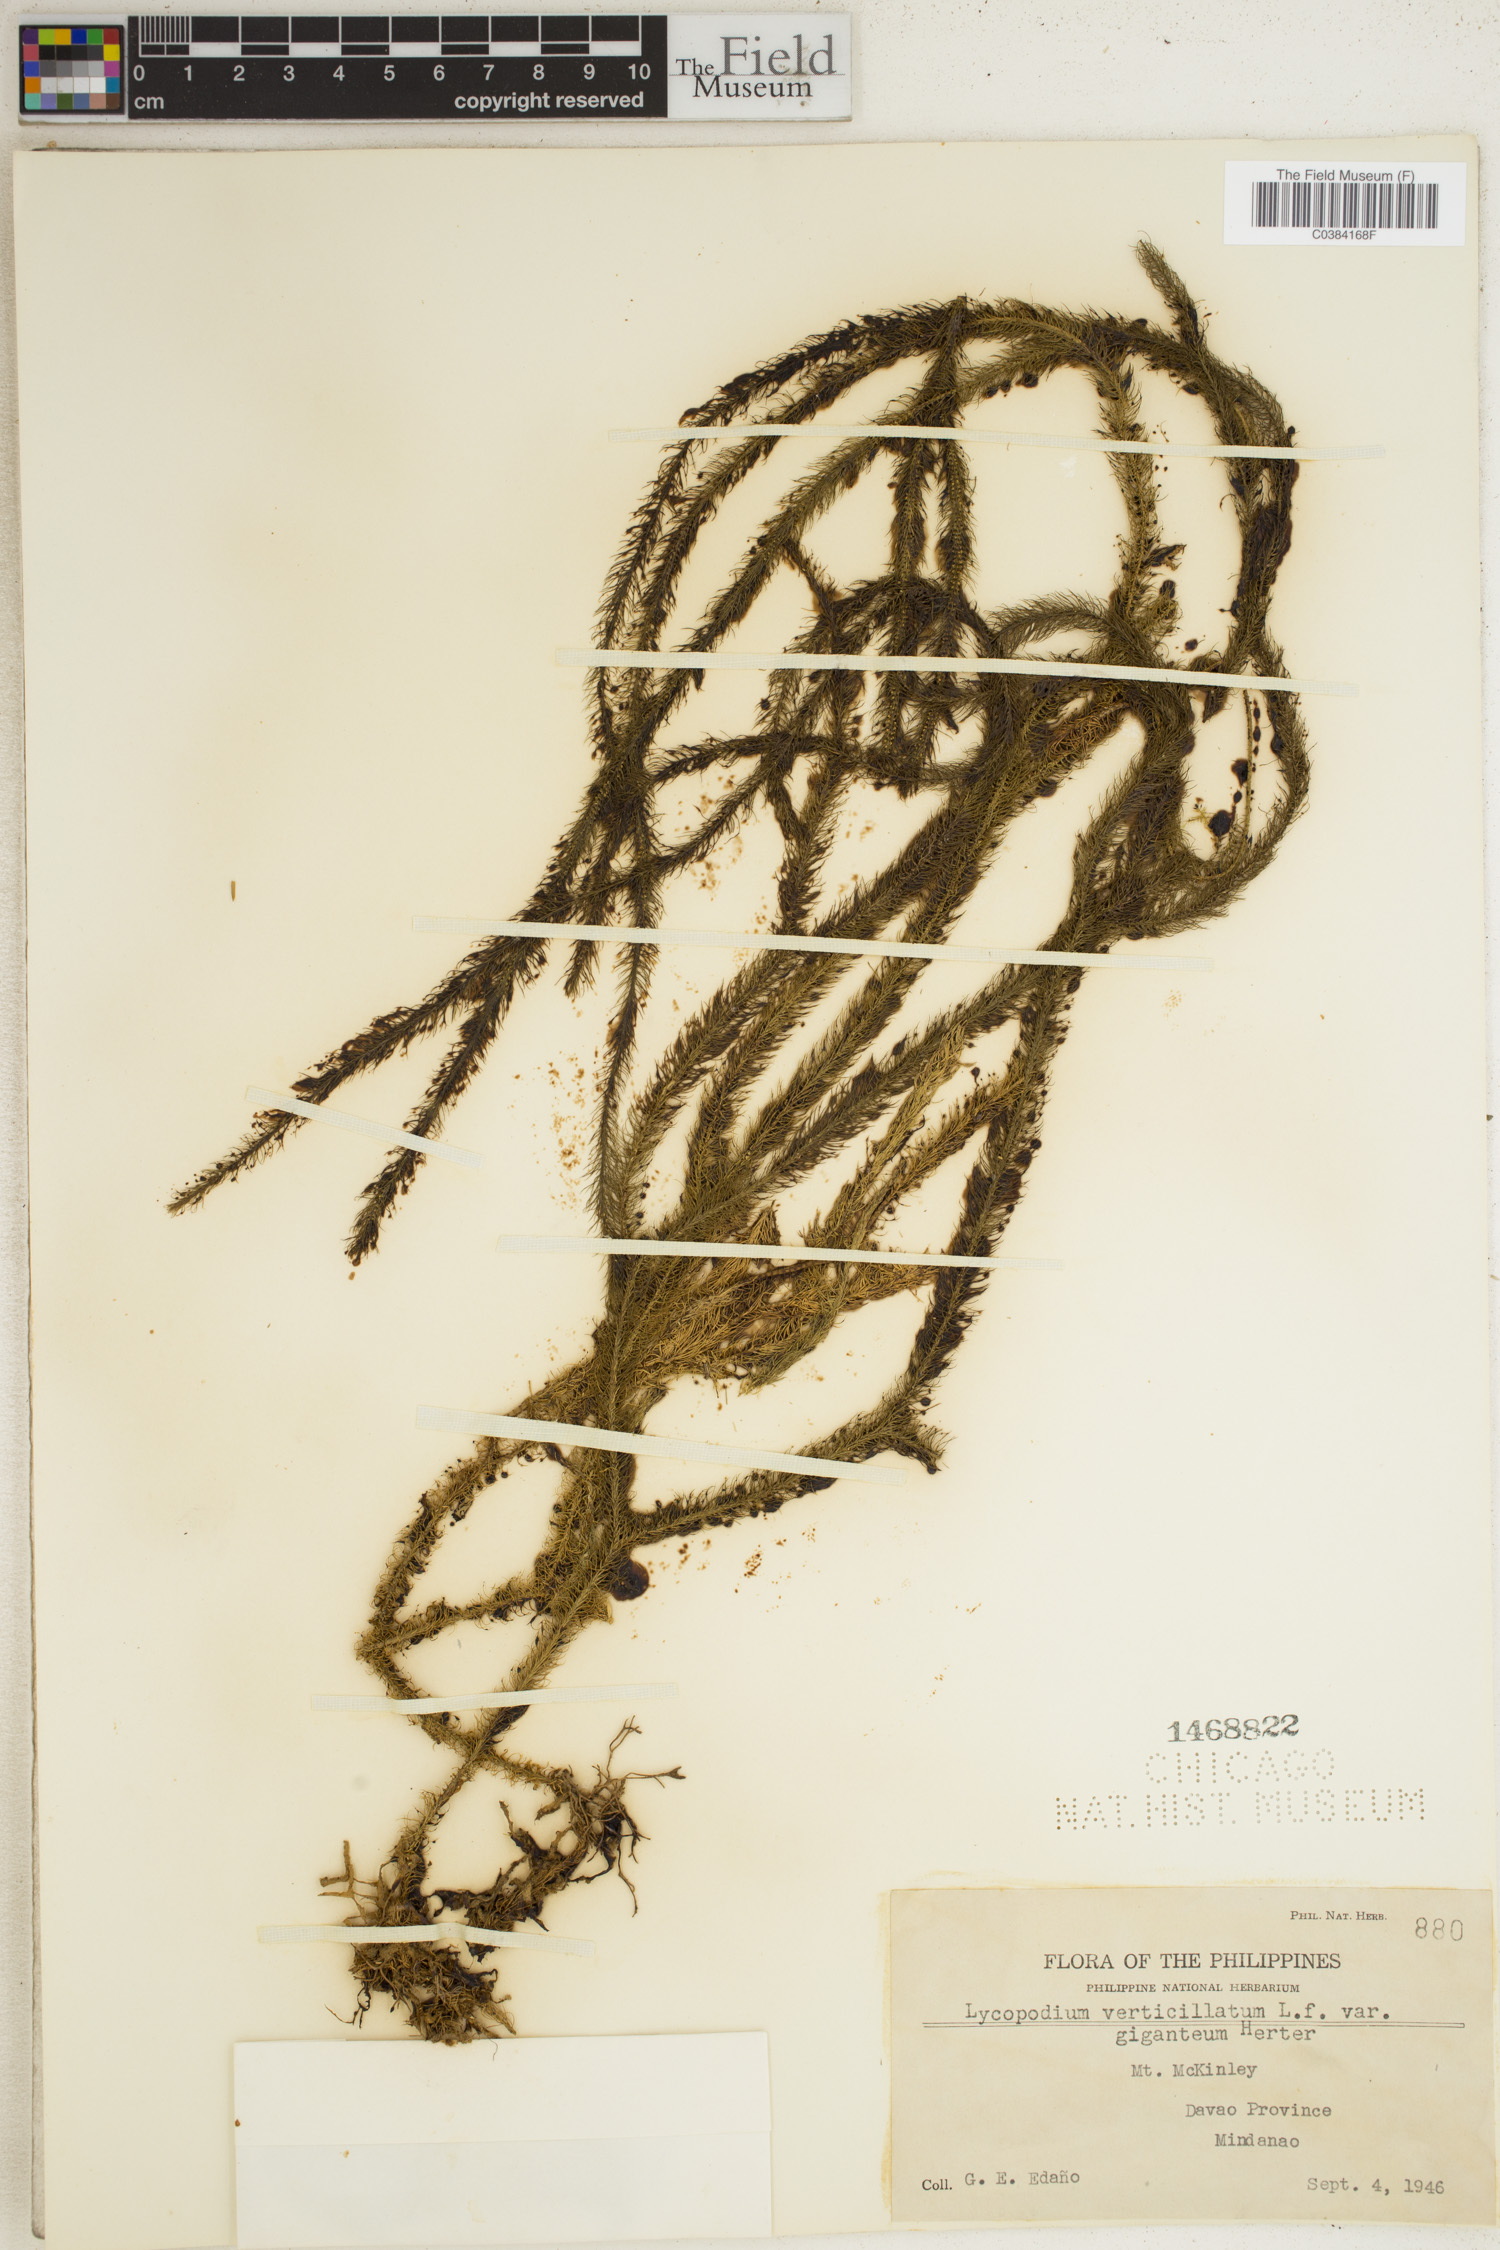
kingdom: Plantae
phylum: Tracheophyta
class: Lycopodiopsida
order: Lycopodiales
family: Lycopodiaceae
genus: Phlegmariurus
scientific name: Phlegmariurus verticillatus
